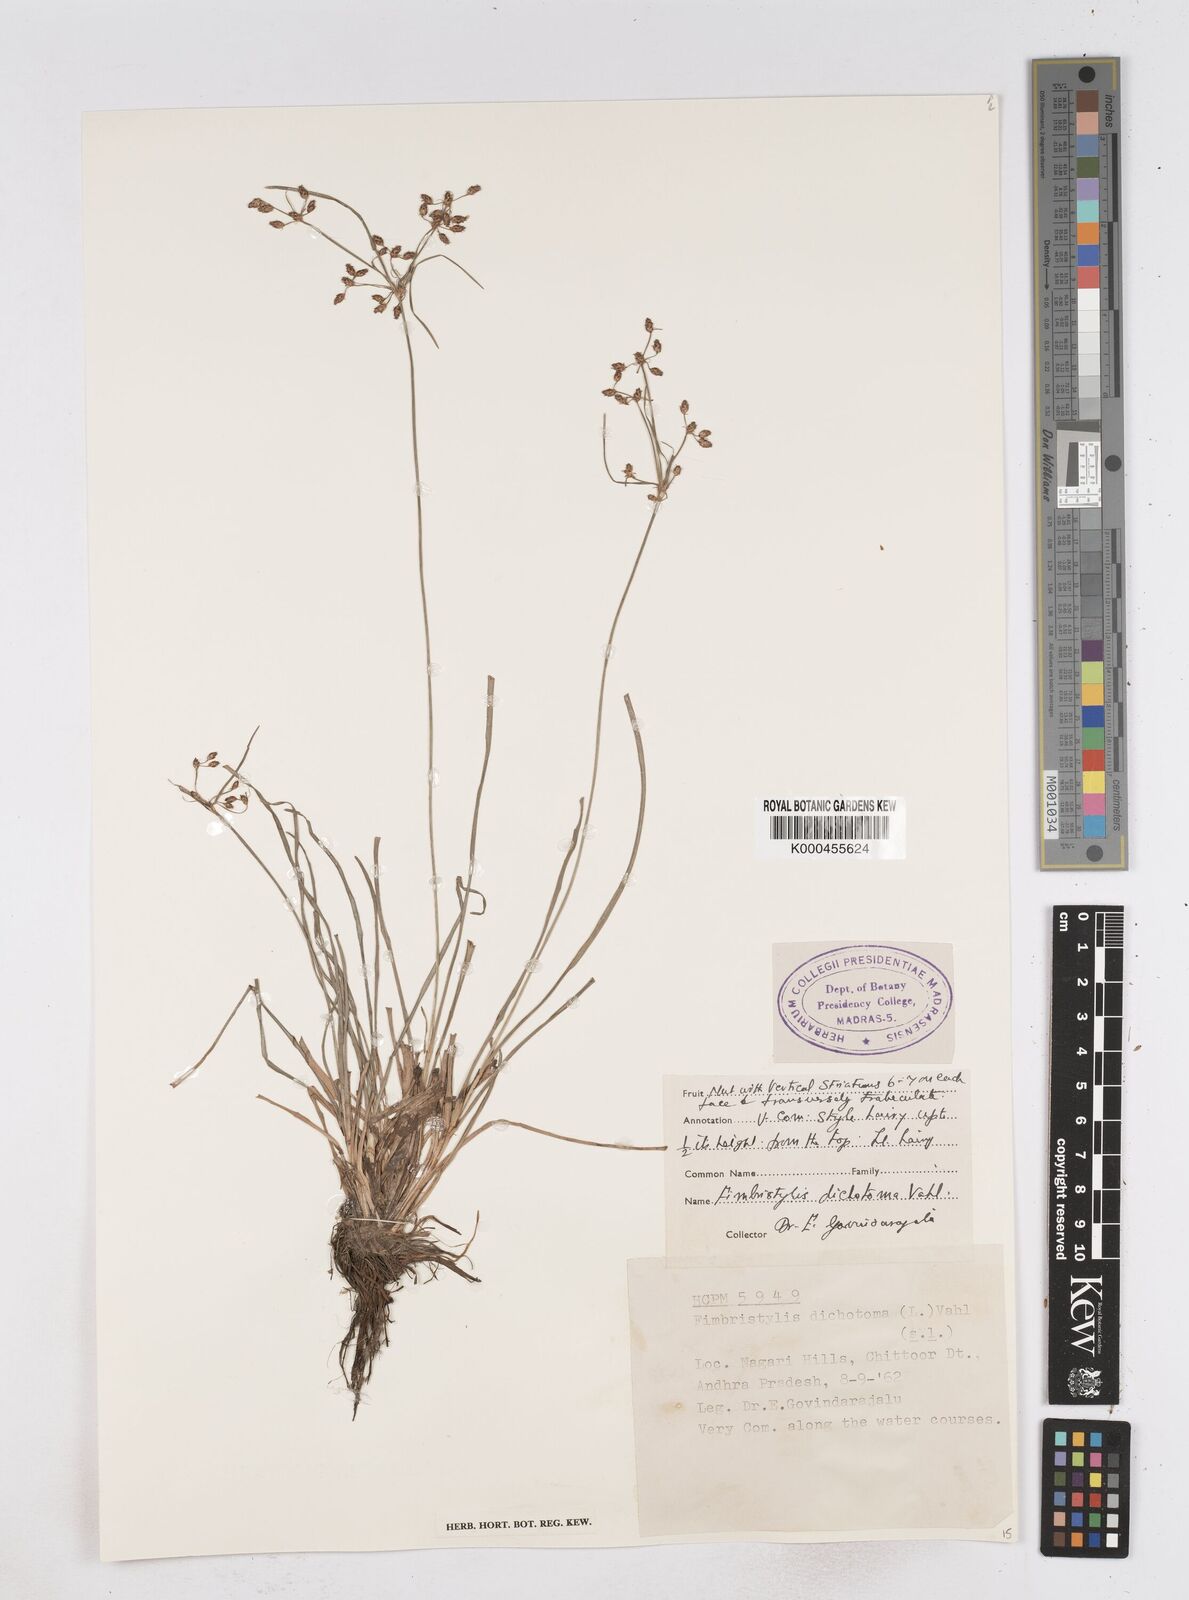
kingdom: Plantae
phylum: Tracheophyta
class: Liliopsida
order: Poales
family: Cyperaceae
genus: Fimbristylis
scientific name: Fimbristylis dichotoma
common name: Forked fimbry
